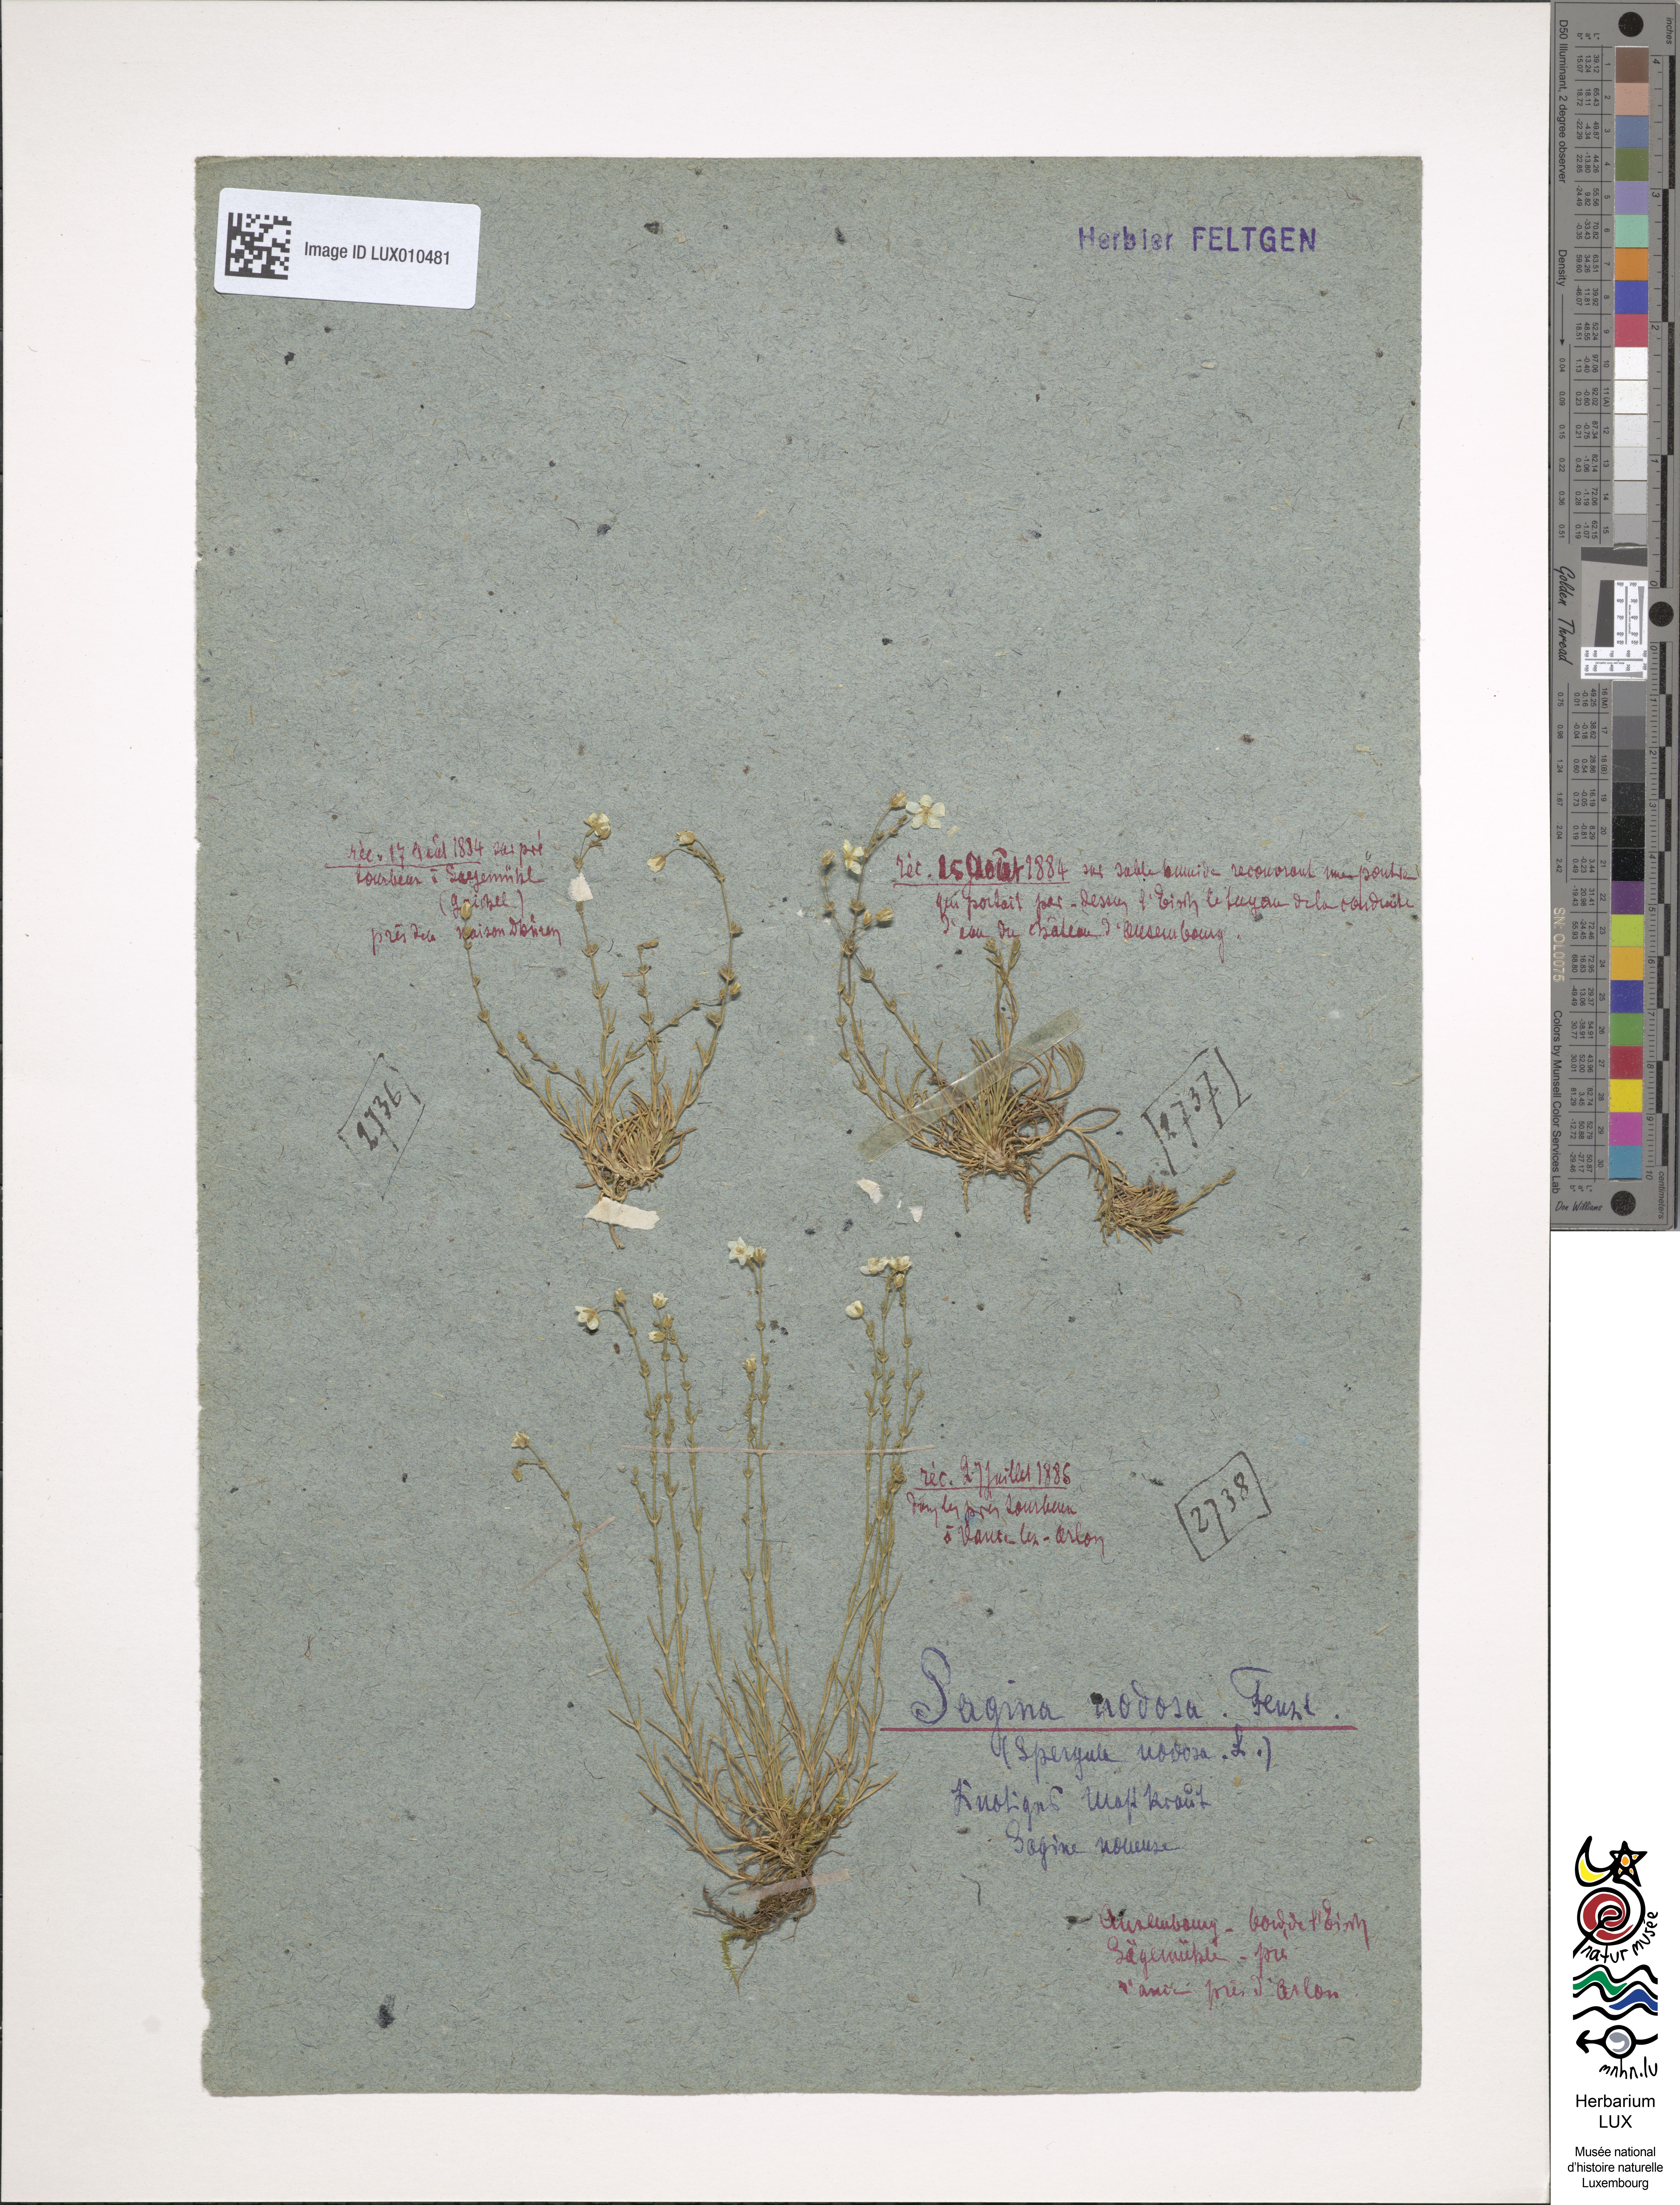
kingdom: Plantae
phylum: Tracheophyta
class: Magnoliopsida
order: Caryophyllales
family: Caryophyllaceae
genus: Sagina
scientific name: Sagina nodosa
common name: Knotted pearlwort
